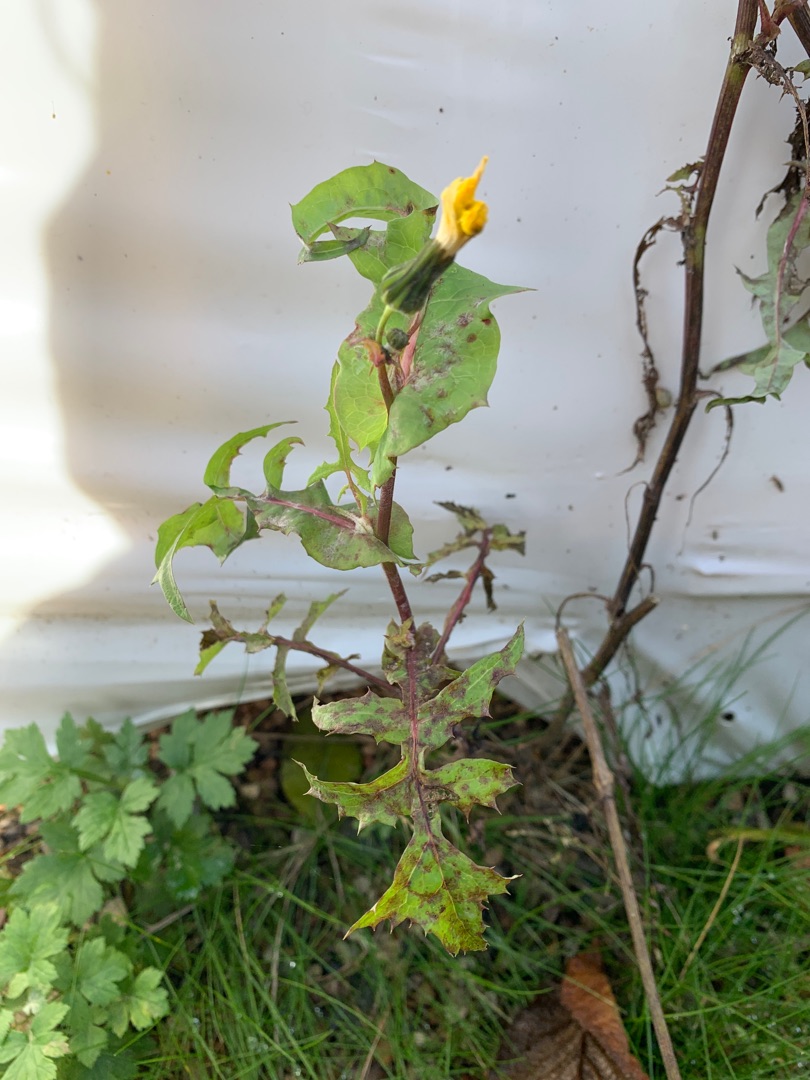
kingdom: Plantae
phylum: Tracheophyta
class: Magnoliopsida
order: Asterales
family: Asteraceae
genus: Sonchus
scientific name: Sonchus oleraceus
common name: Almindelig svinemælk
